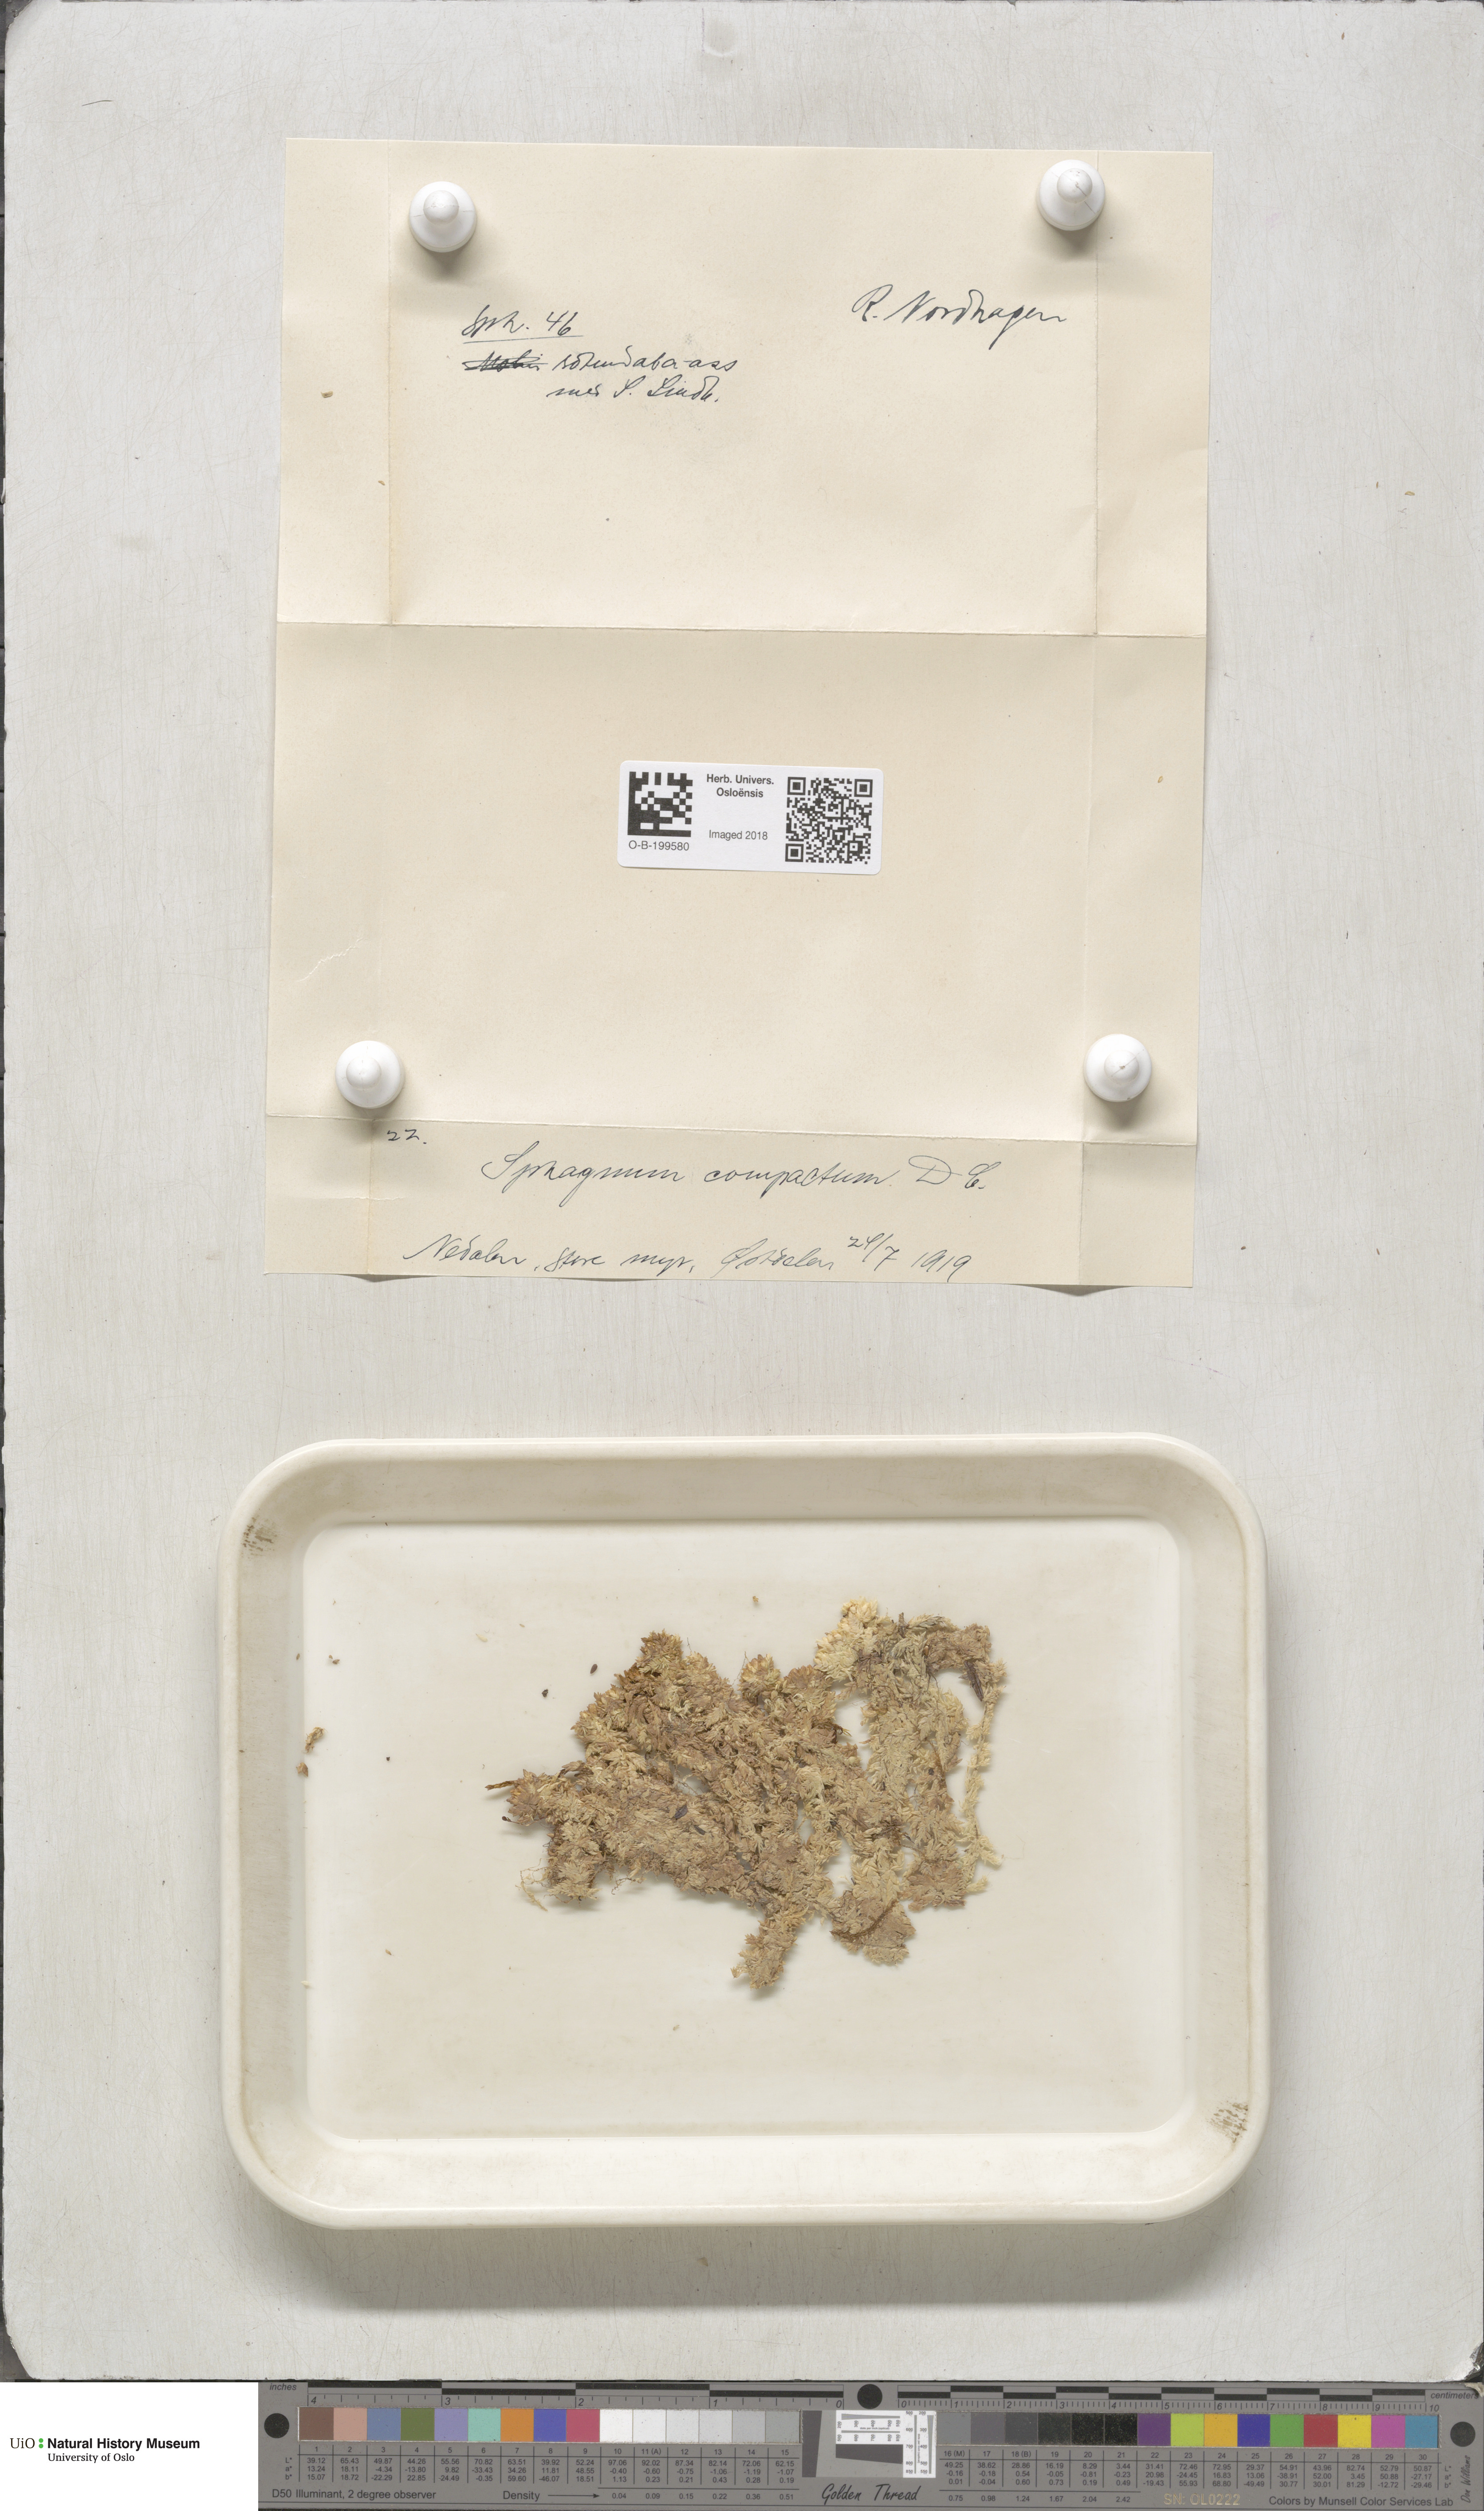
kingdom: Plantae
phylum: Bryophyta
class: Sphagnopsida
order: Sphagnales
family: Sphagnaceae
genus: Sphagnum
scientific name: Sphagnum compactum
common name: Compact peat moss
